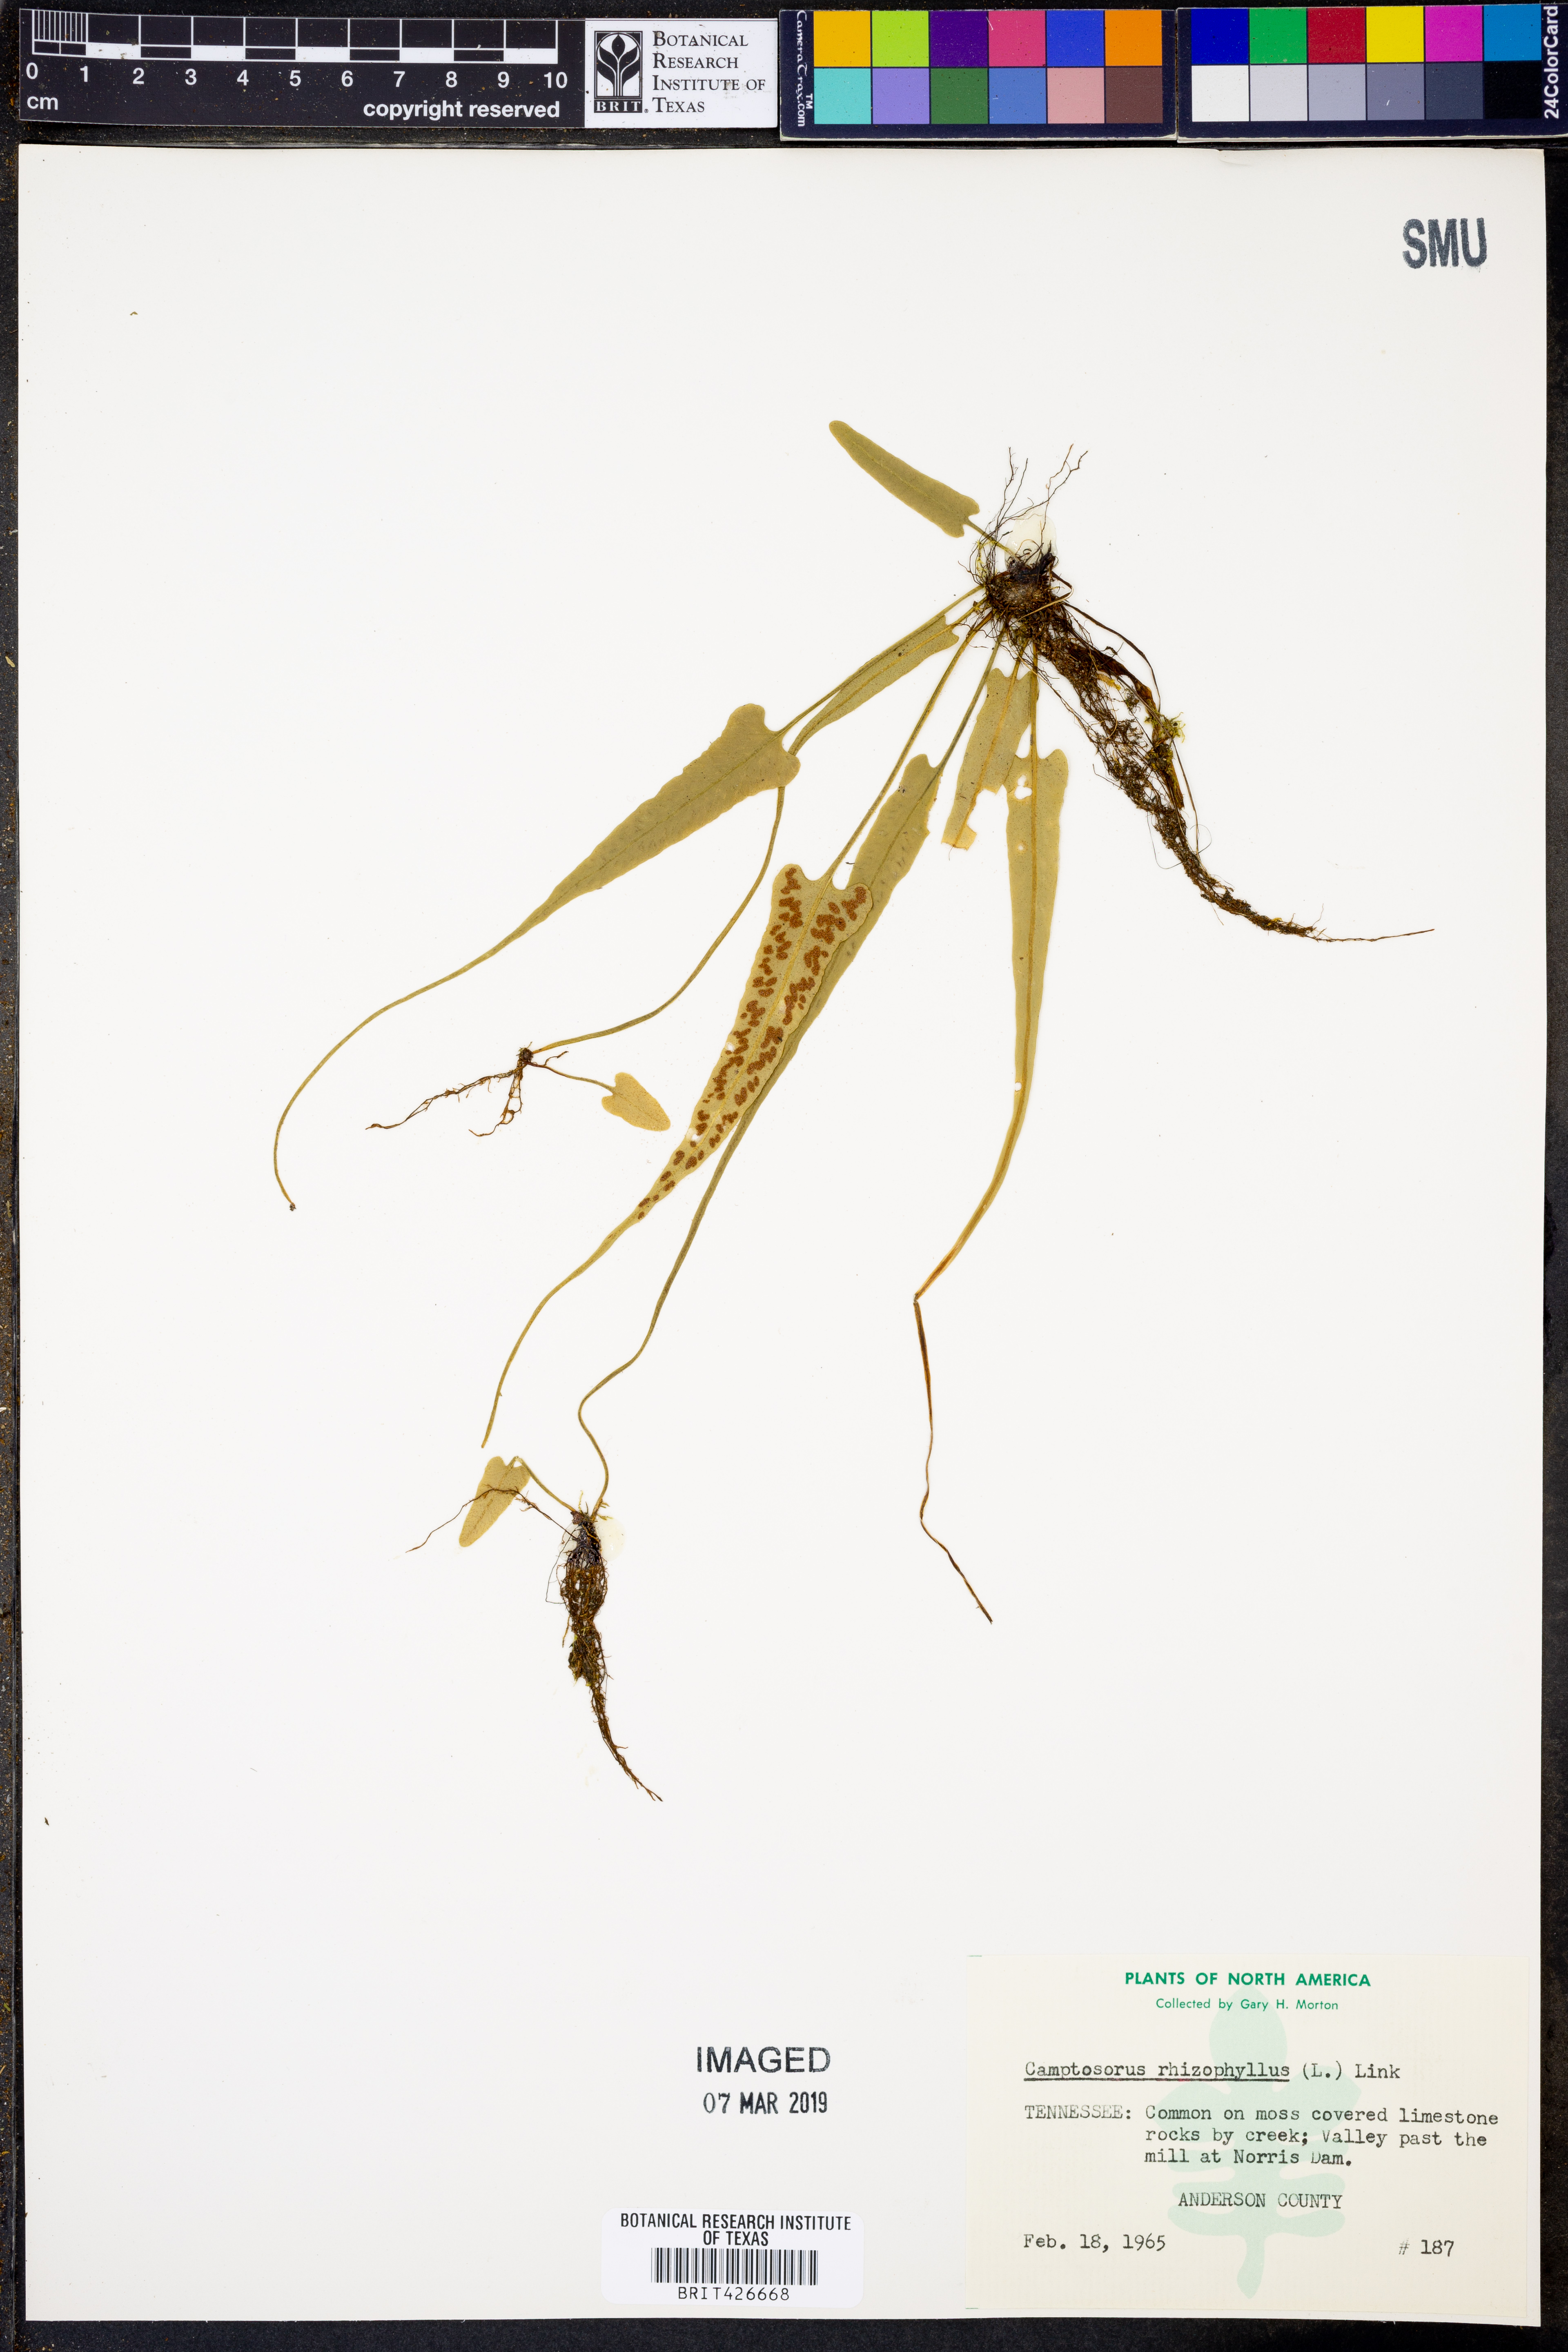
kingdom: Plantae
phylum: Tracheophyta
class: Polypodiopsida
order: Polypodiales
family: Aspleniaceae
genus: Asplenium
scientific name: Asplenium rhizophyllum
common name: Walking fern
